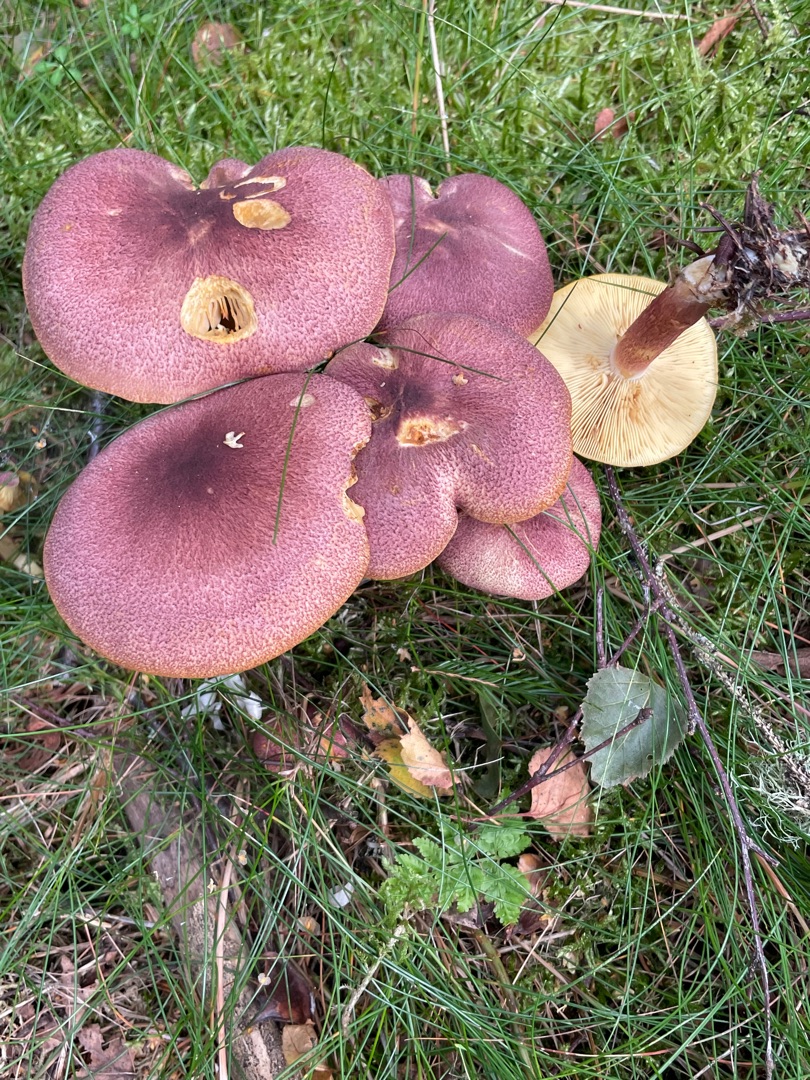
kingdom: Fungi
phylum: Basidiomycota
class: Agaricomycetes
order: Agaricales
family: Tricholomataceae
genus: Tricholomopsis
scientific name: Tricholomopsis rutilans
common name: Purpur-væbnerhat
